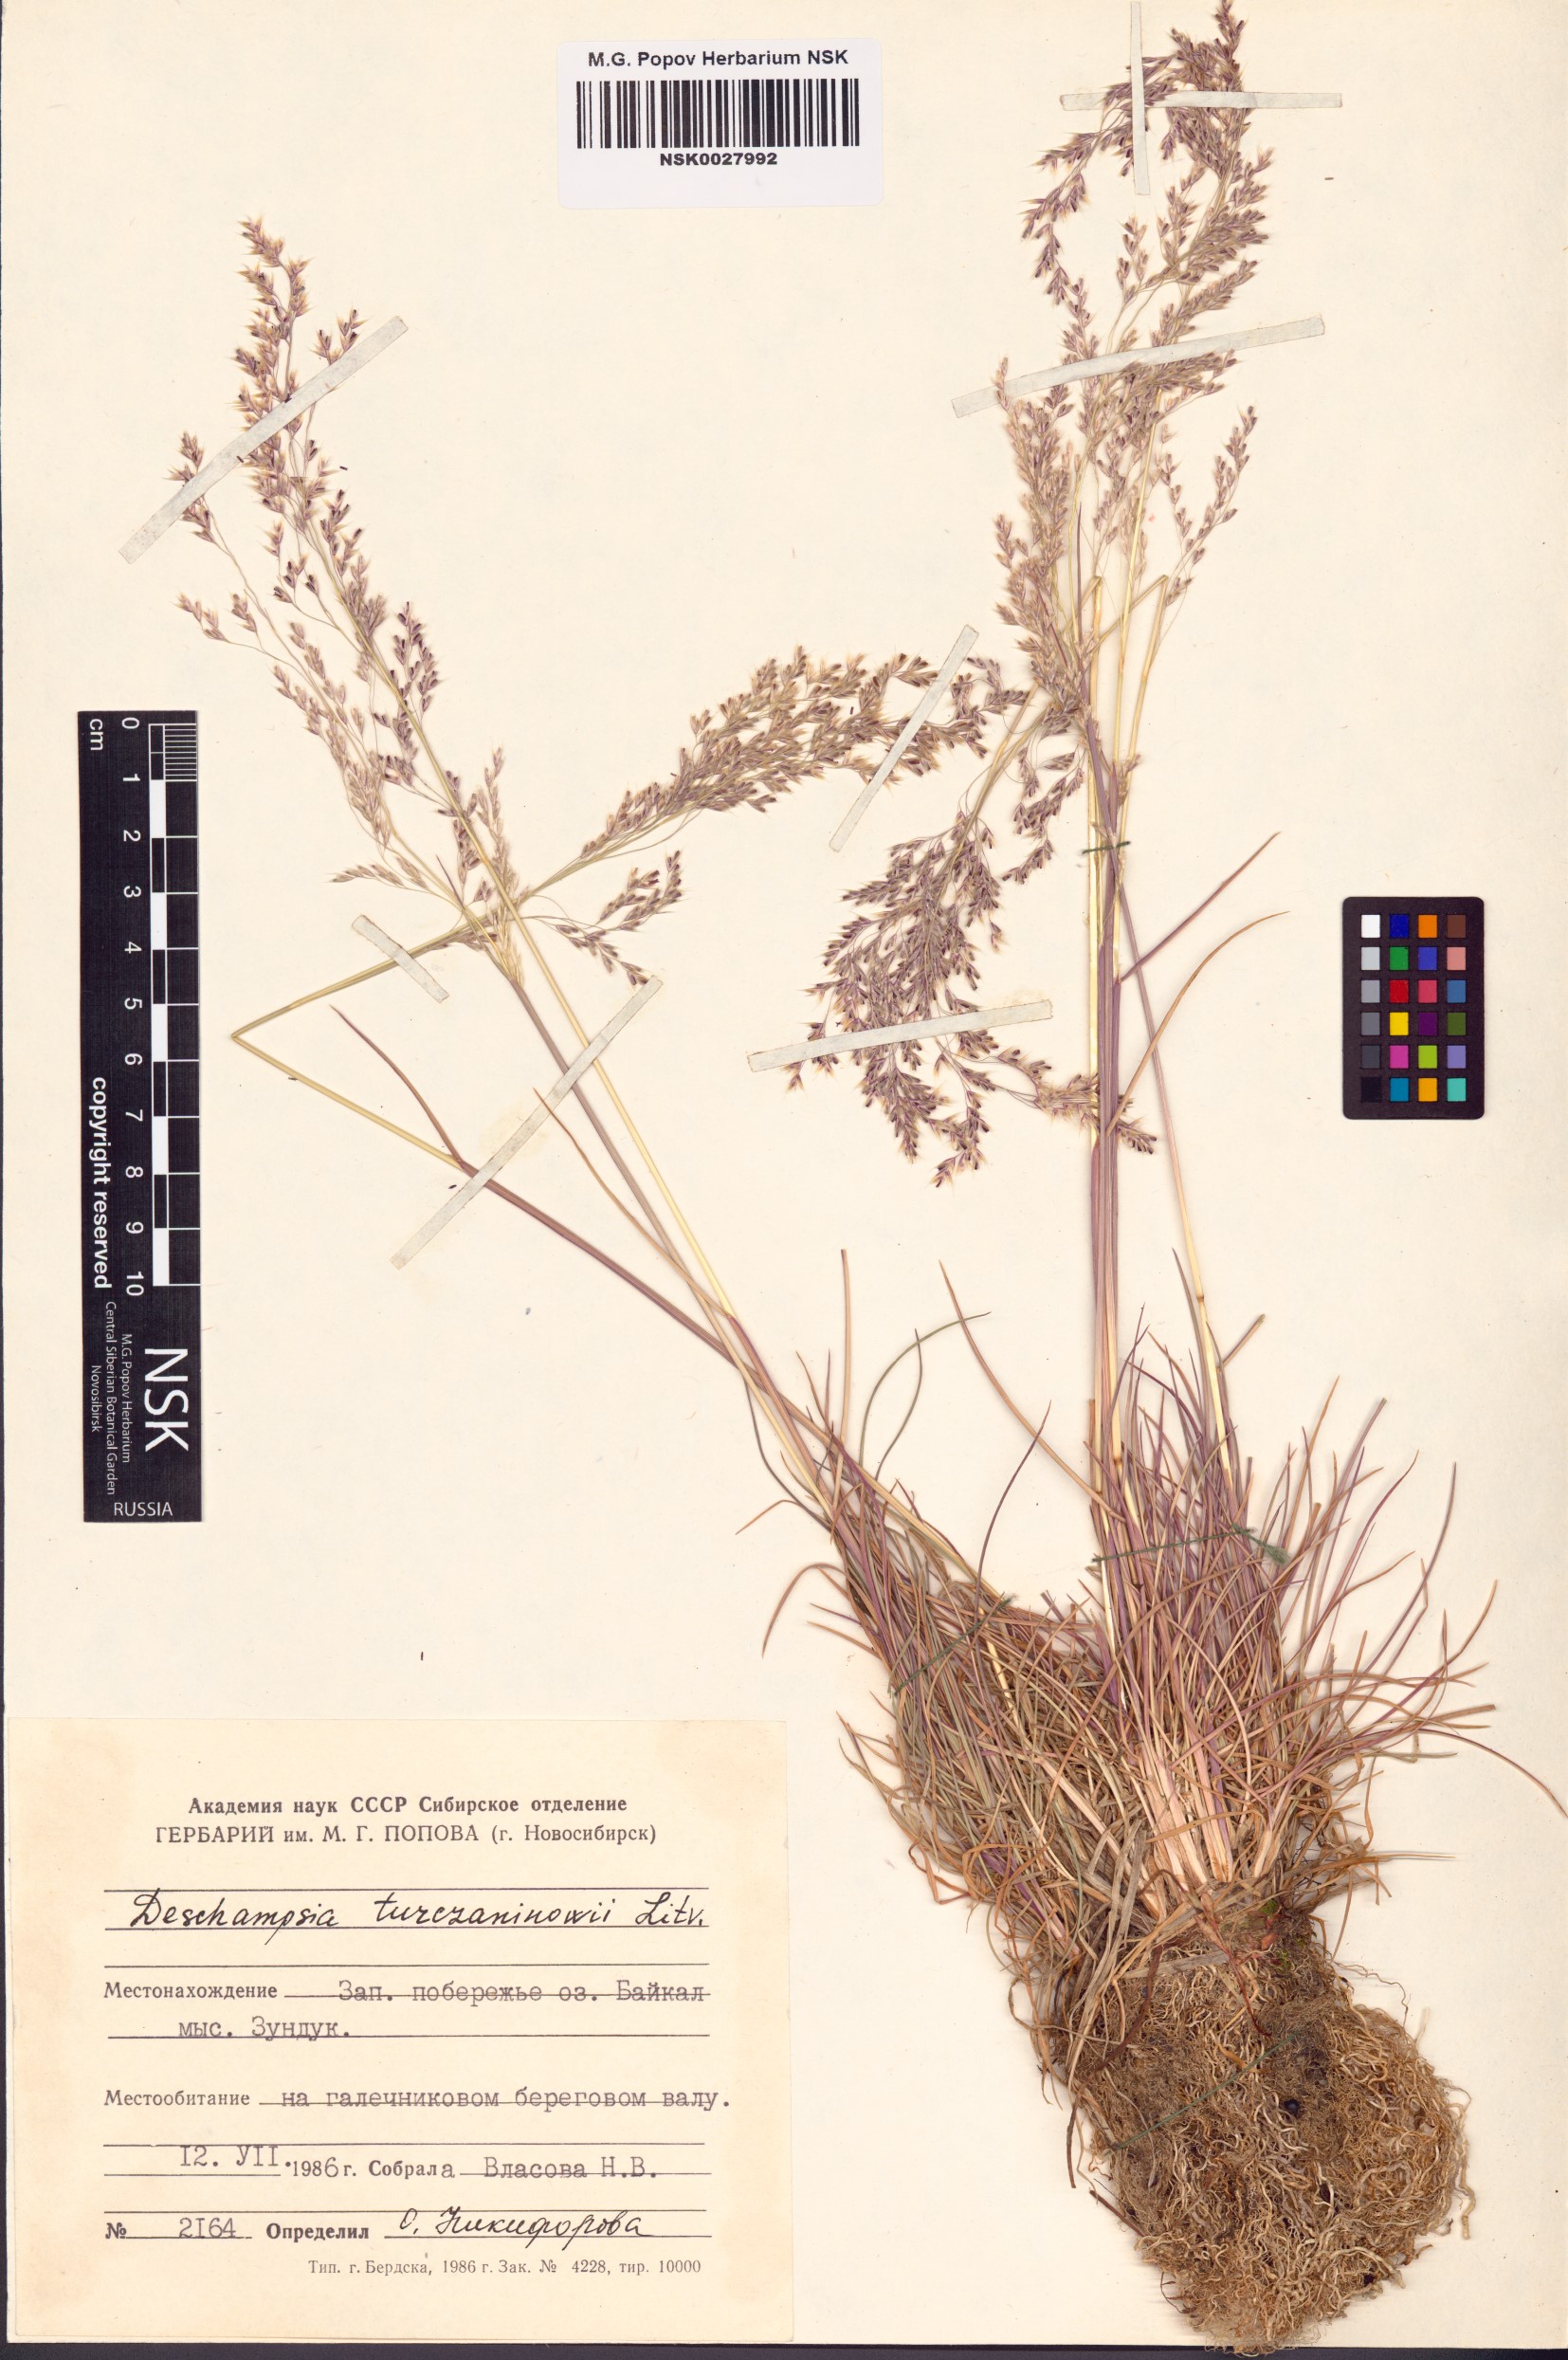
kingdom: Plantae
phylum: Tracheophyta
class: Liliopsida
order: Poales
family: Poaceae
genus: Deschampsia
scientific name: Deschampsia cespitosa
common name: Tufted hair-grass
